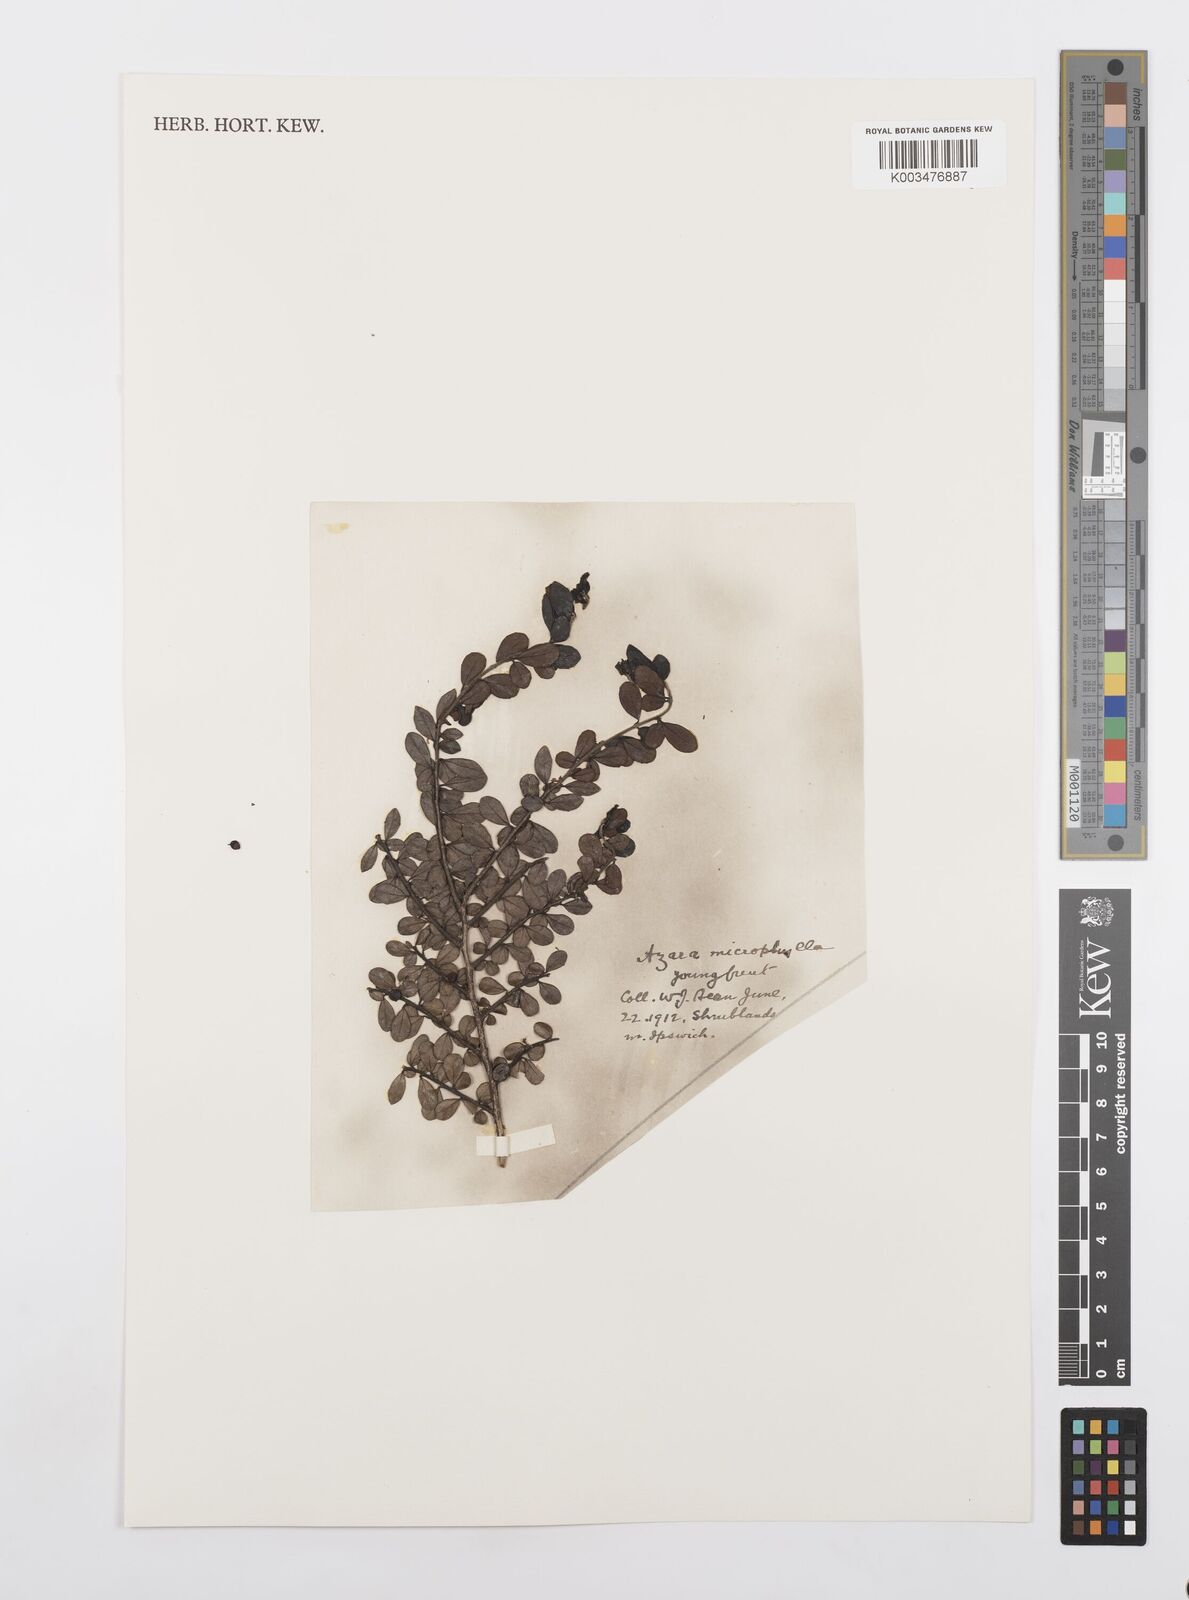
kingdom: Plantae
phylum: Tracheophyta
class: Magnoliopsida
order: Malpighiales
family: Salicaceae
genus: Azara
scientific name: Azara microphylla
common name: Box-leaf azara
